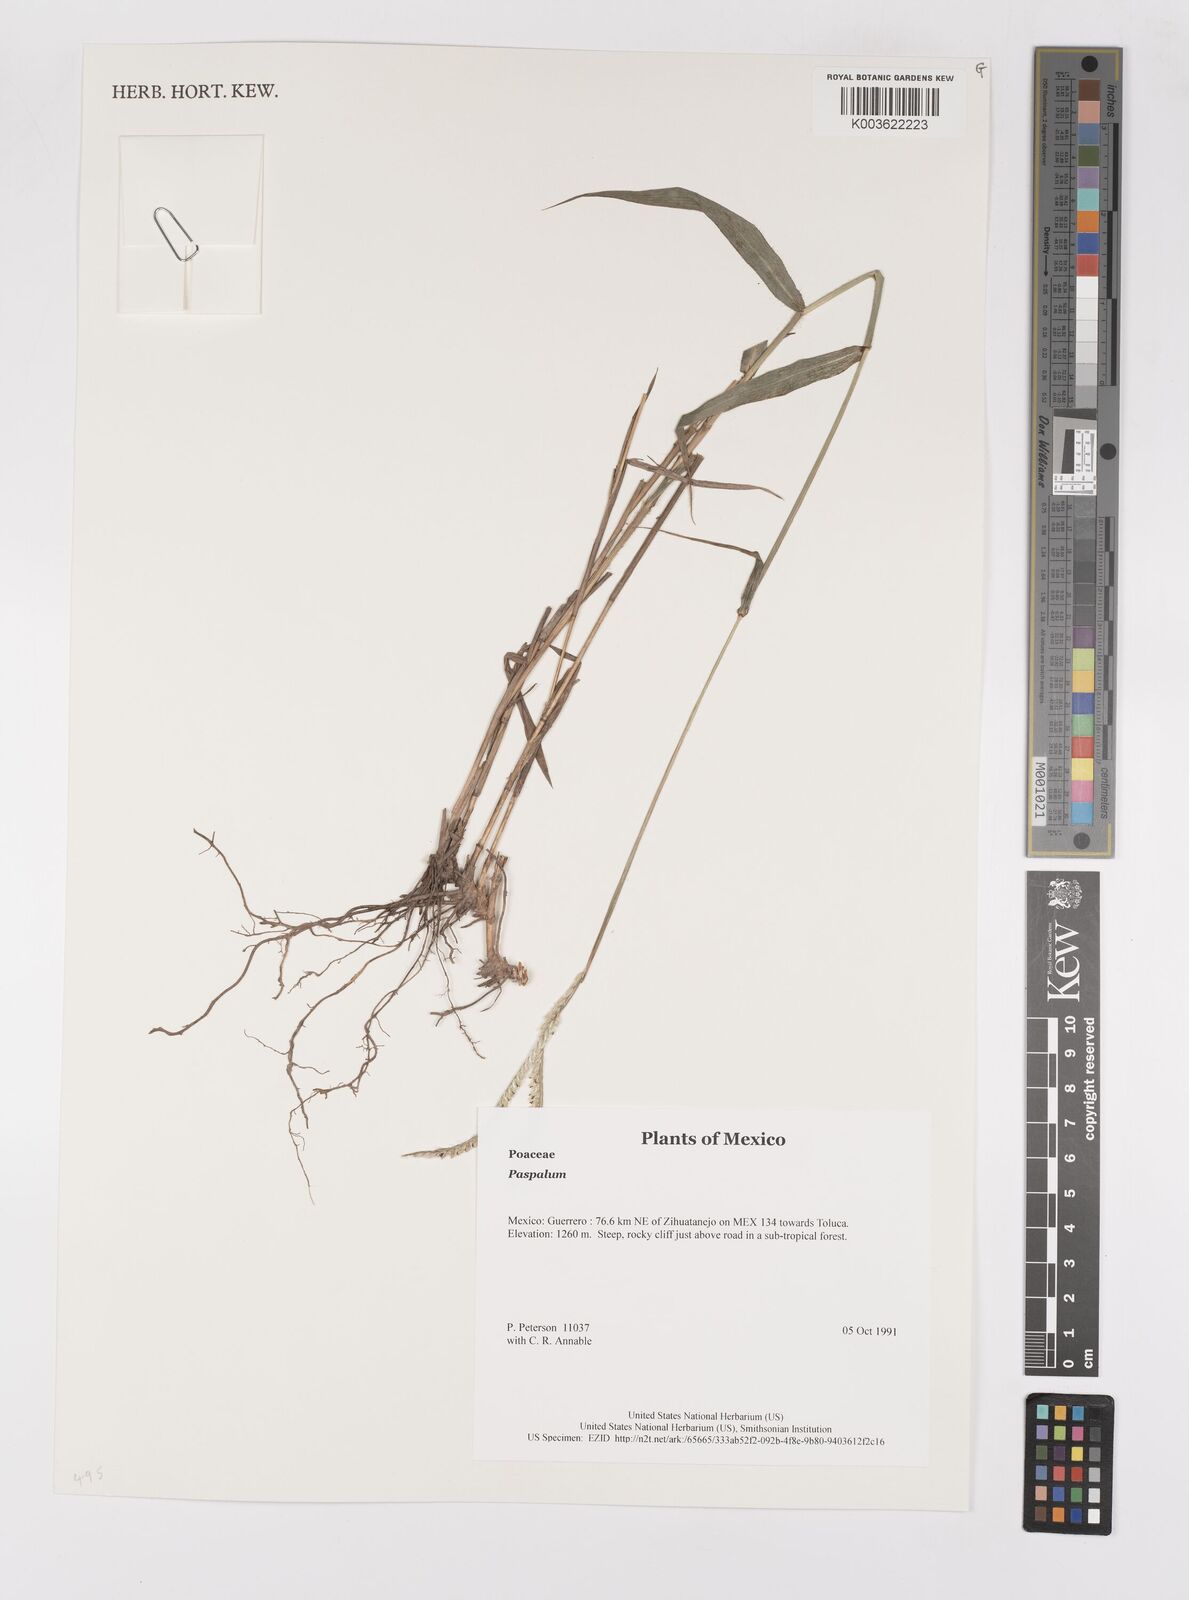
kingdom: Plantae
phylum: Tracheophyta
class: Liliopsida
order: Poales
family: Poaceae
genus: Paspalum
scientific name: Paspalum
